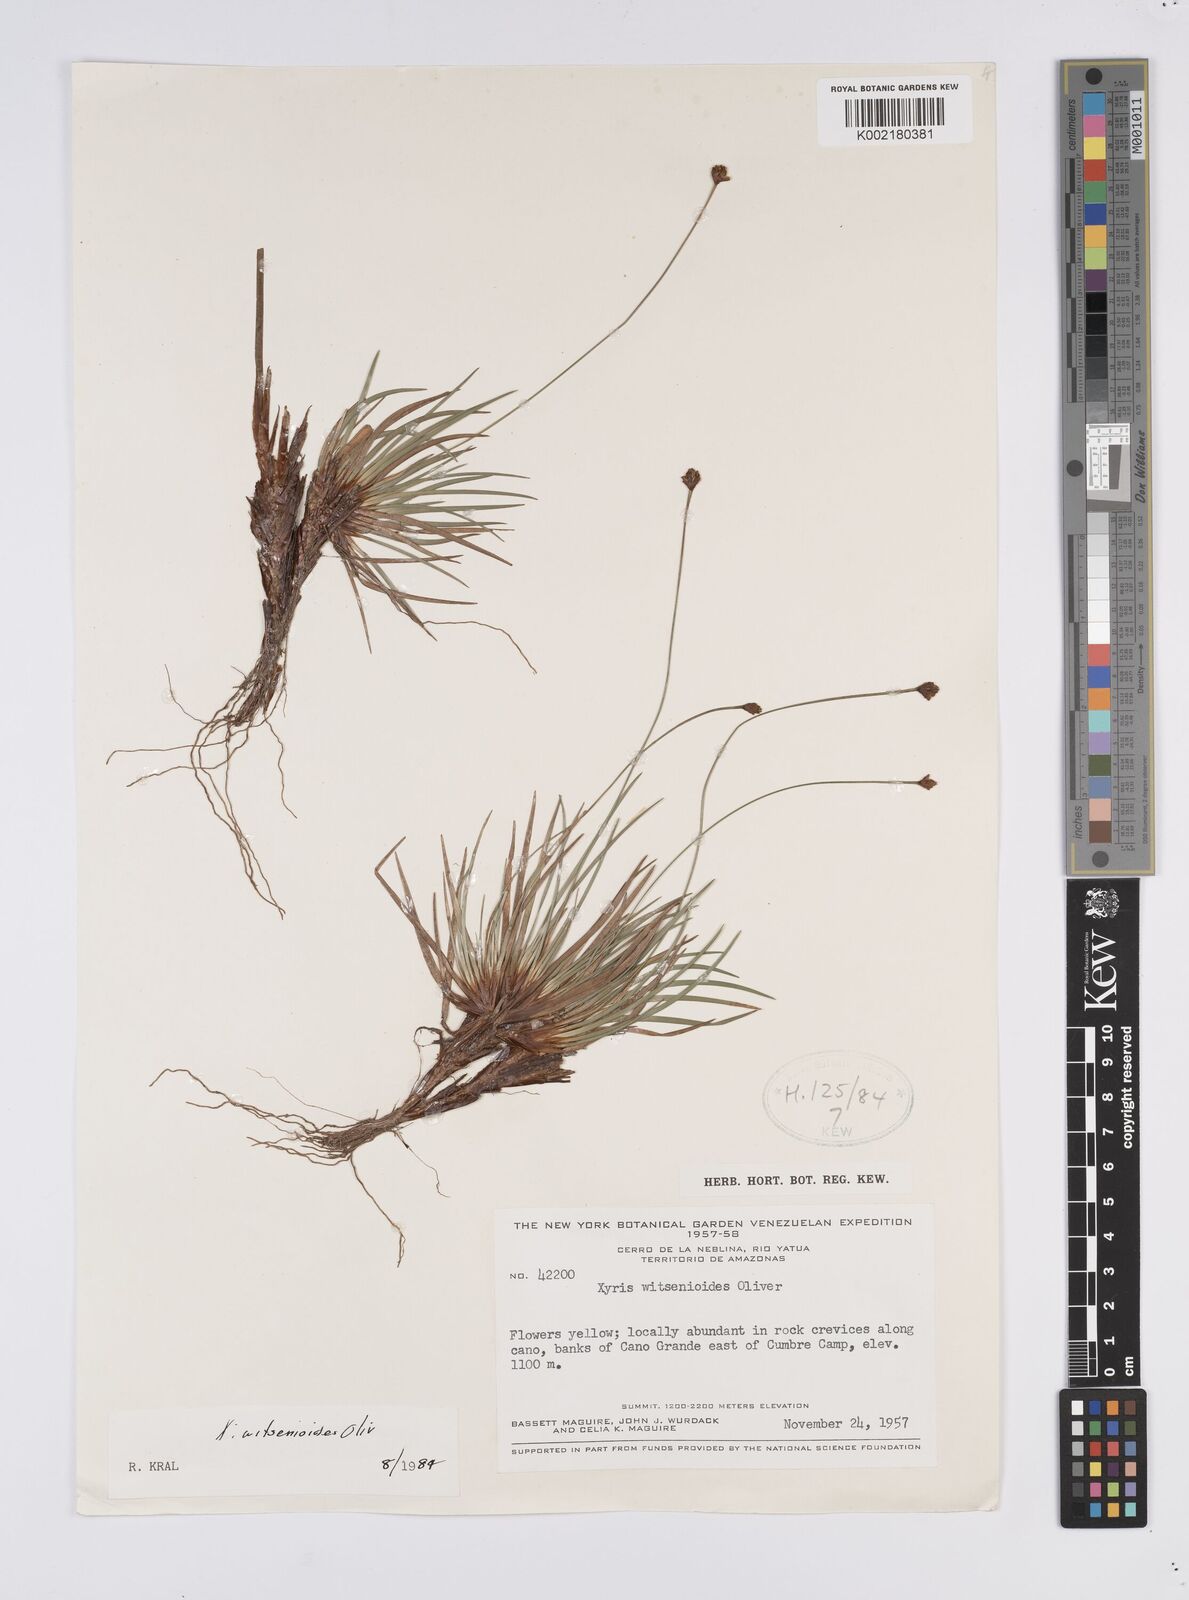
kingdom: Plantae
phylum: Tracheophyta
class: Liliopsida
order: Poales
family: Xyridaceae
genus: Xyris
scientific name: Xyris witsenioides
